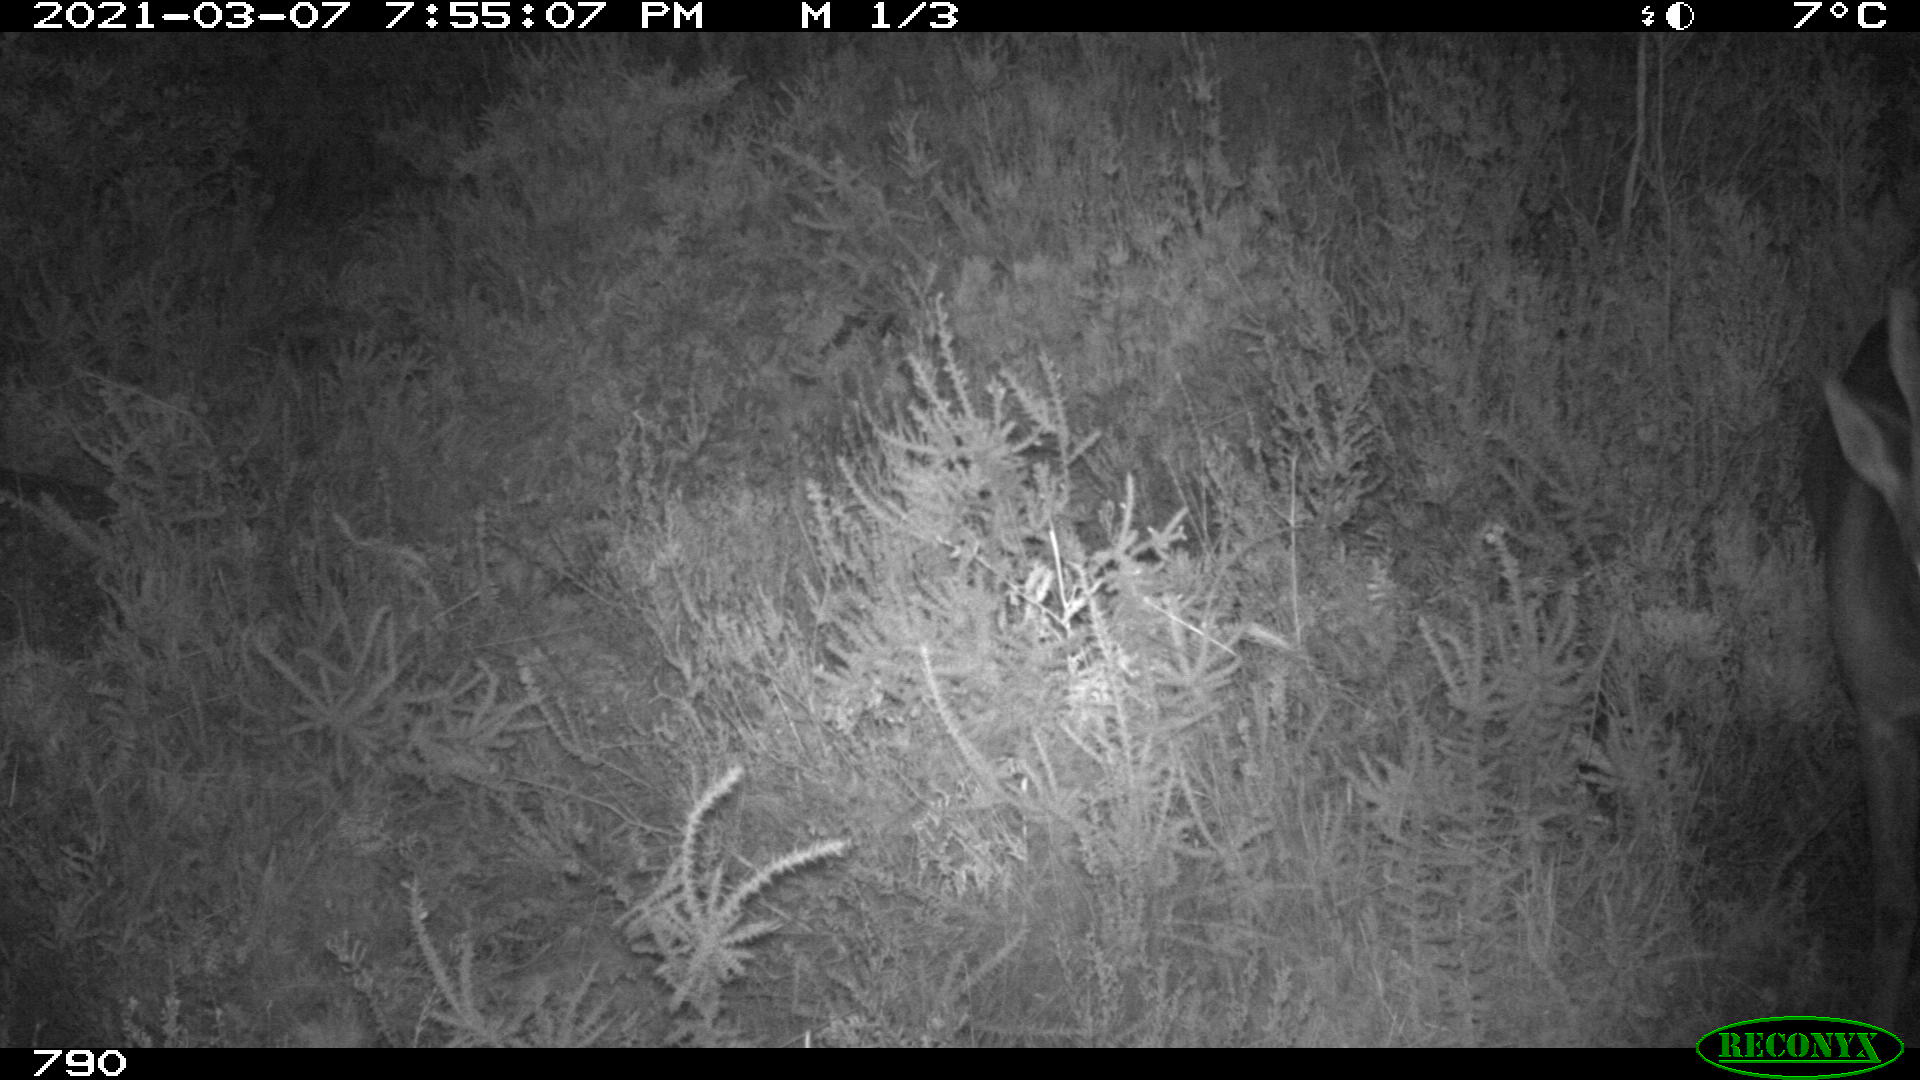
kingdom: Animalia
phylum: Chordata
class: Mammalia
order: Artiodactyla
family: Cervidae
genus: Capreolus
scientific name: Capreolus capreolus
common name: Western roe deer
